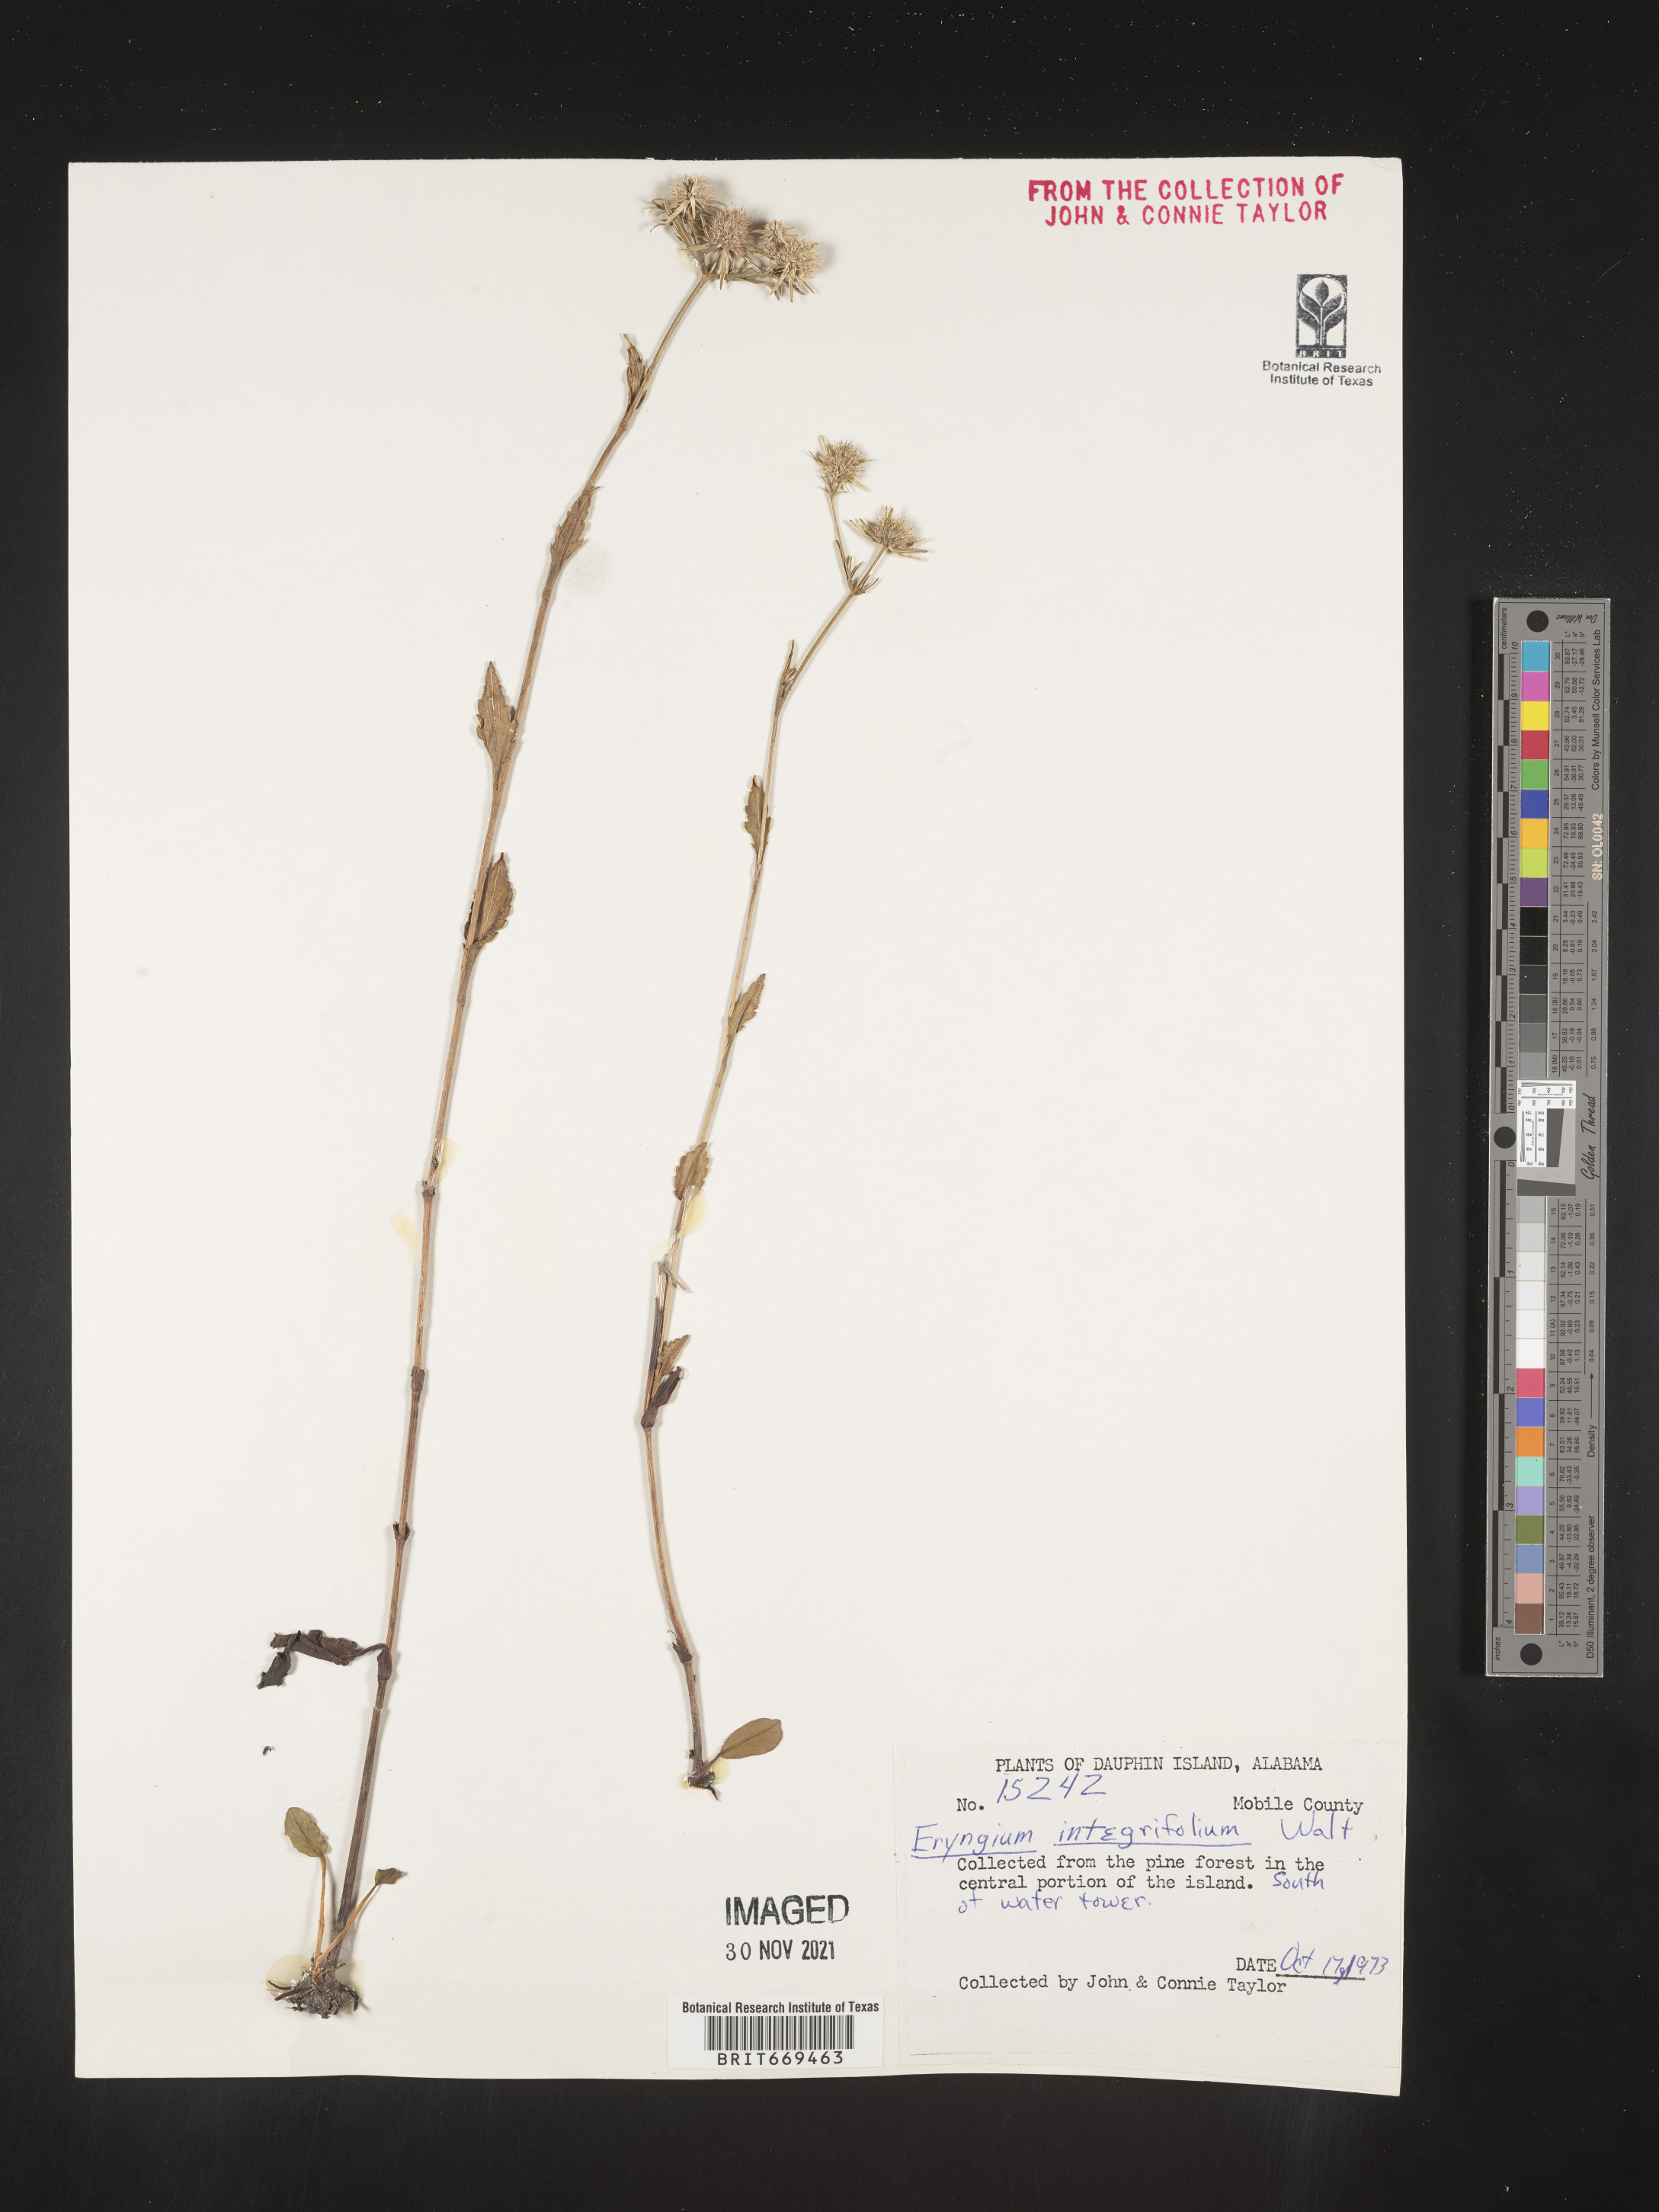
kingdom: Plantae
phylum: Tracheophyta
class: Magnoliopsida
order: Apiales
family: Apiaceae
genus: Eryngium
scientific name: Eryngium integrifolium
